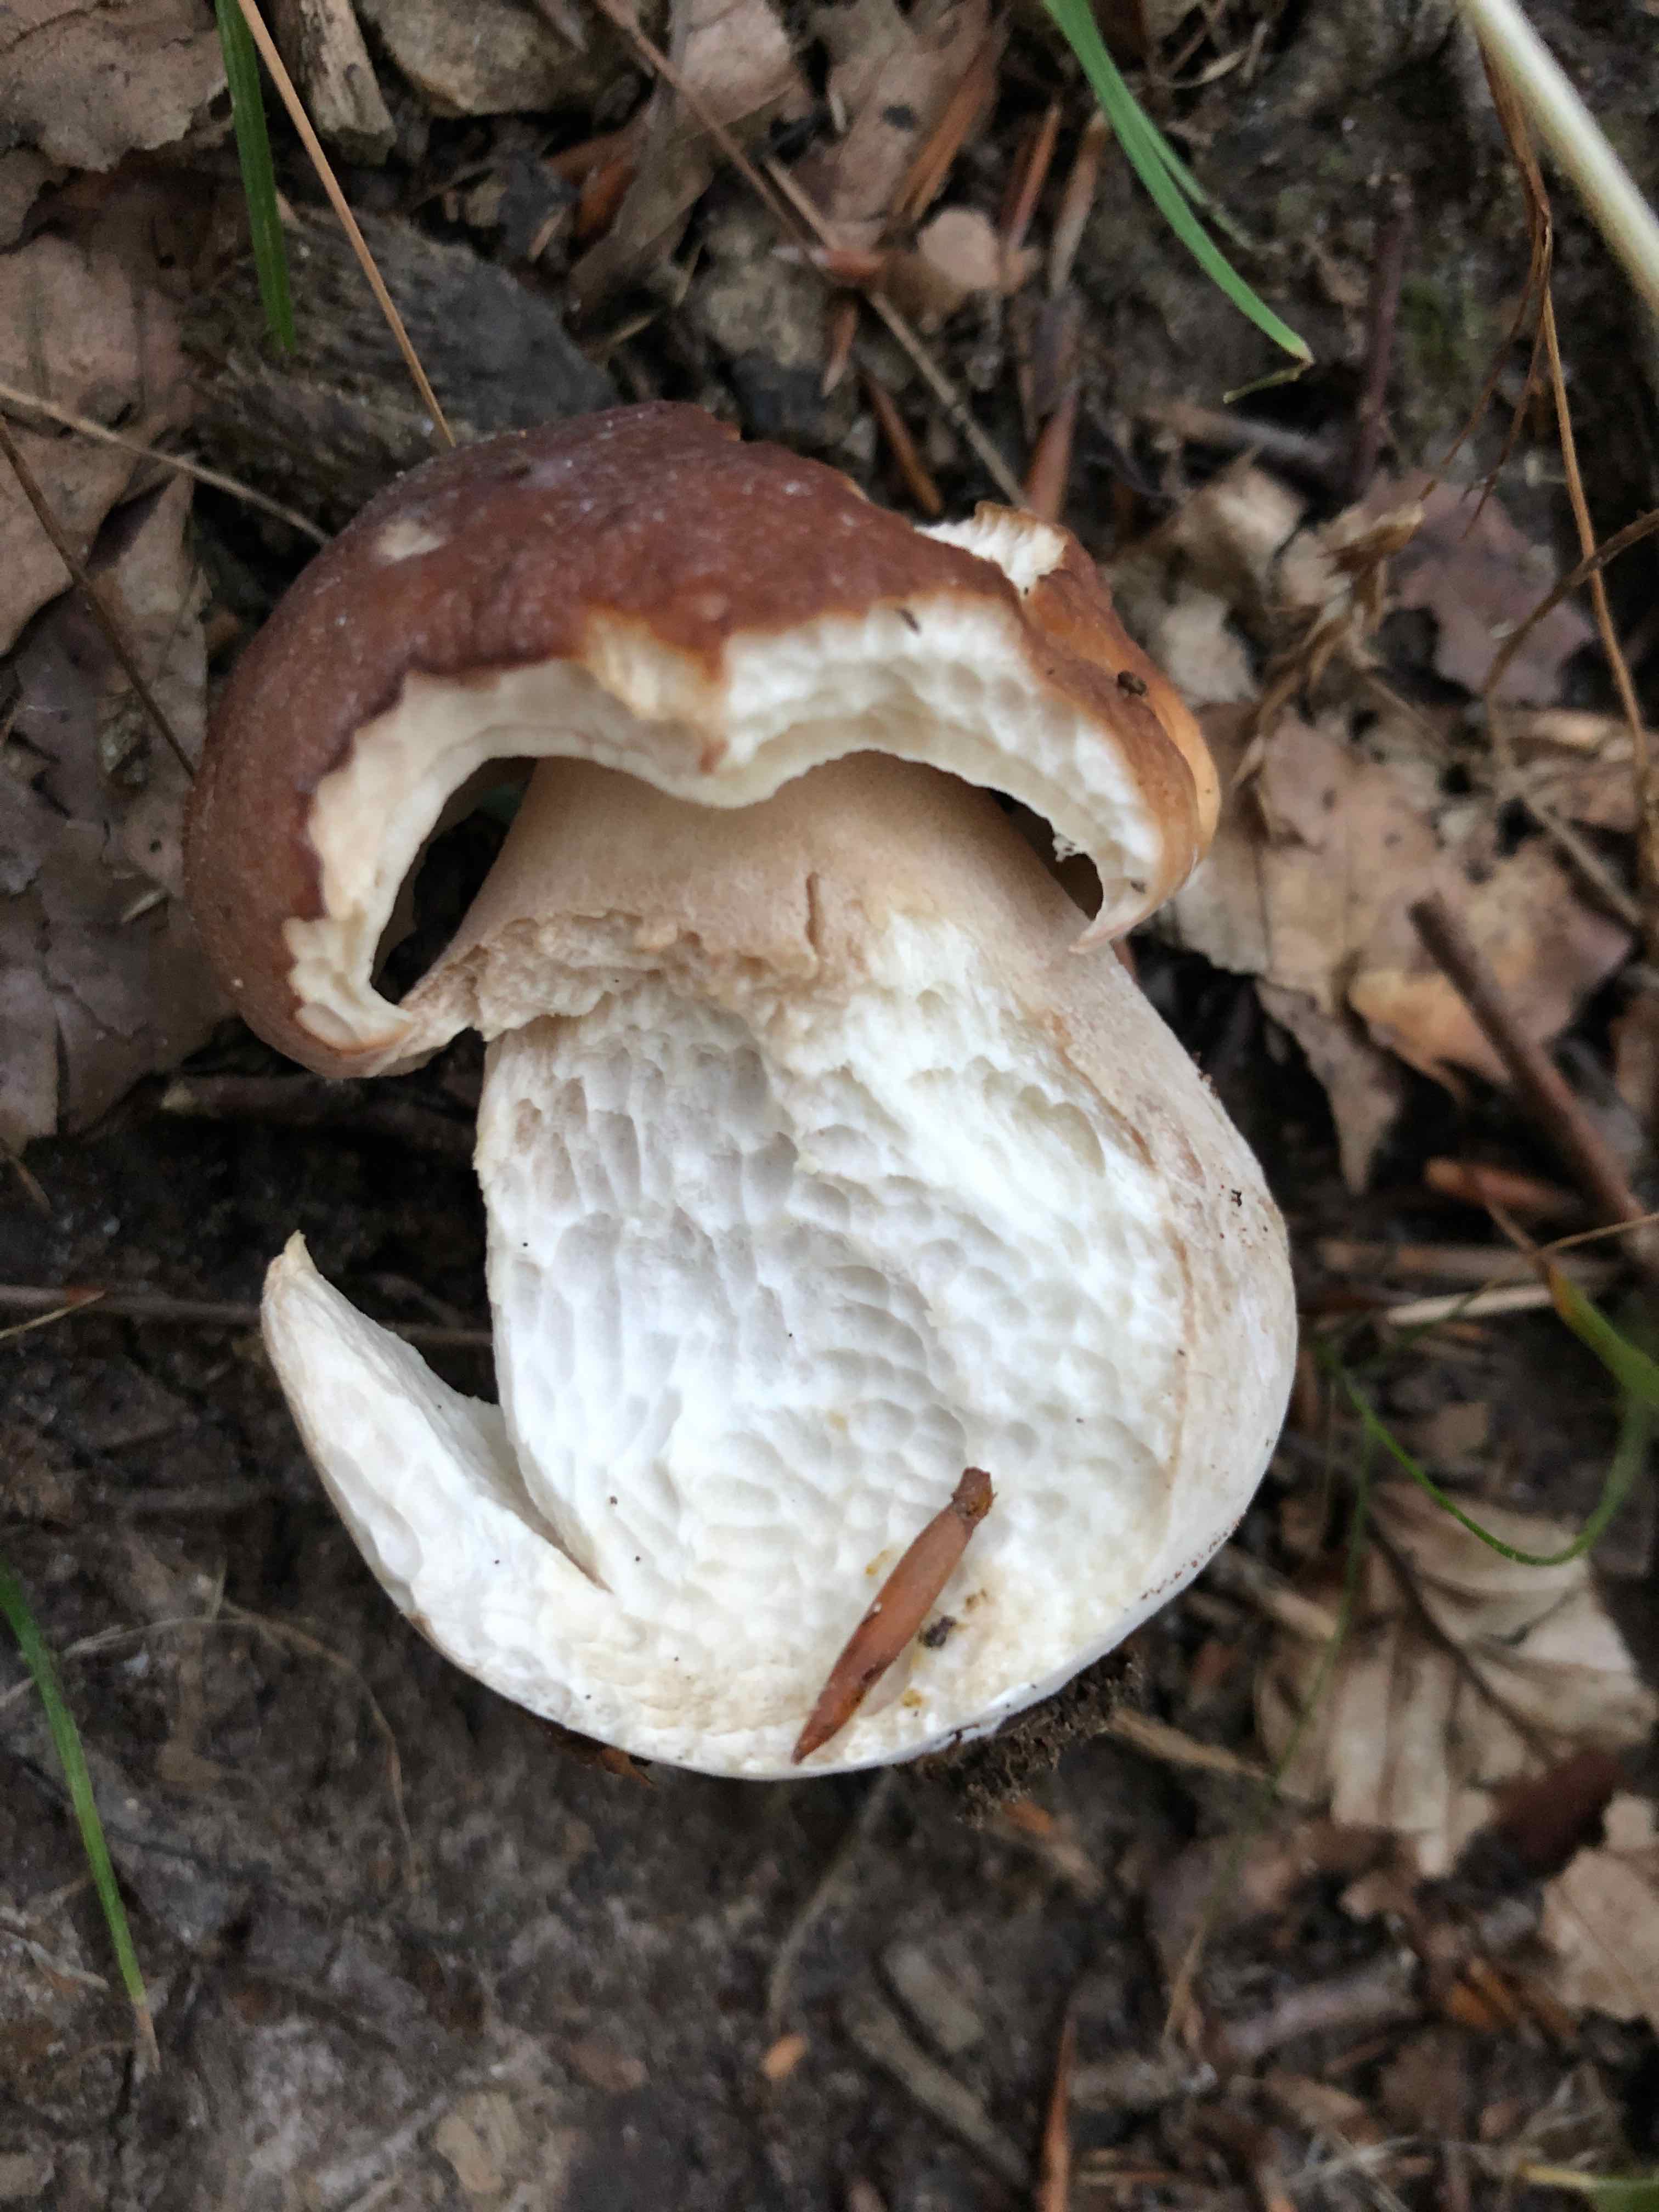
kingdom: Fungi
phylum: Basidiomycota
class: Agaricomycetes
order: Boletales
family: Boletaceae
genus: Boletus
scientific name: Boletus edulis
